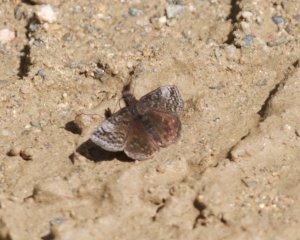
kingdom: Animalia
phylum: Arthropoda
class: Insecta
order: Lepidoptera
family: Hesperiidae
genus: Erynnis
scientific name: Erynnis icelus
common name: Dreamy Duskywing
